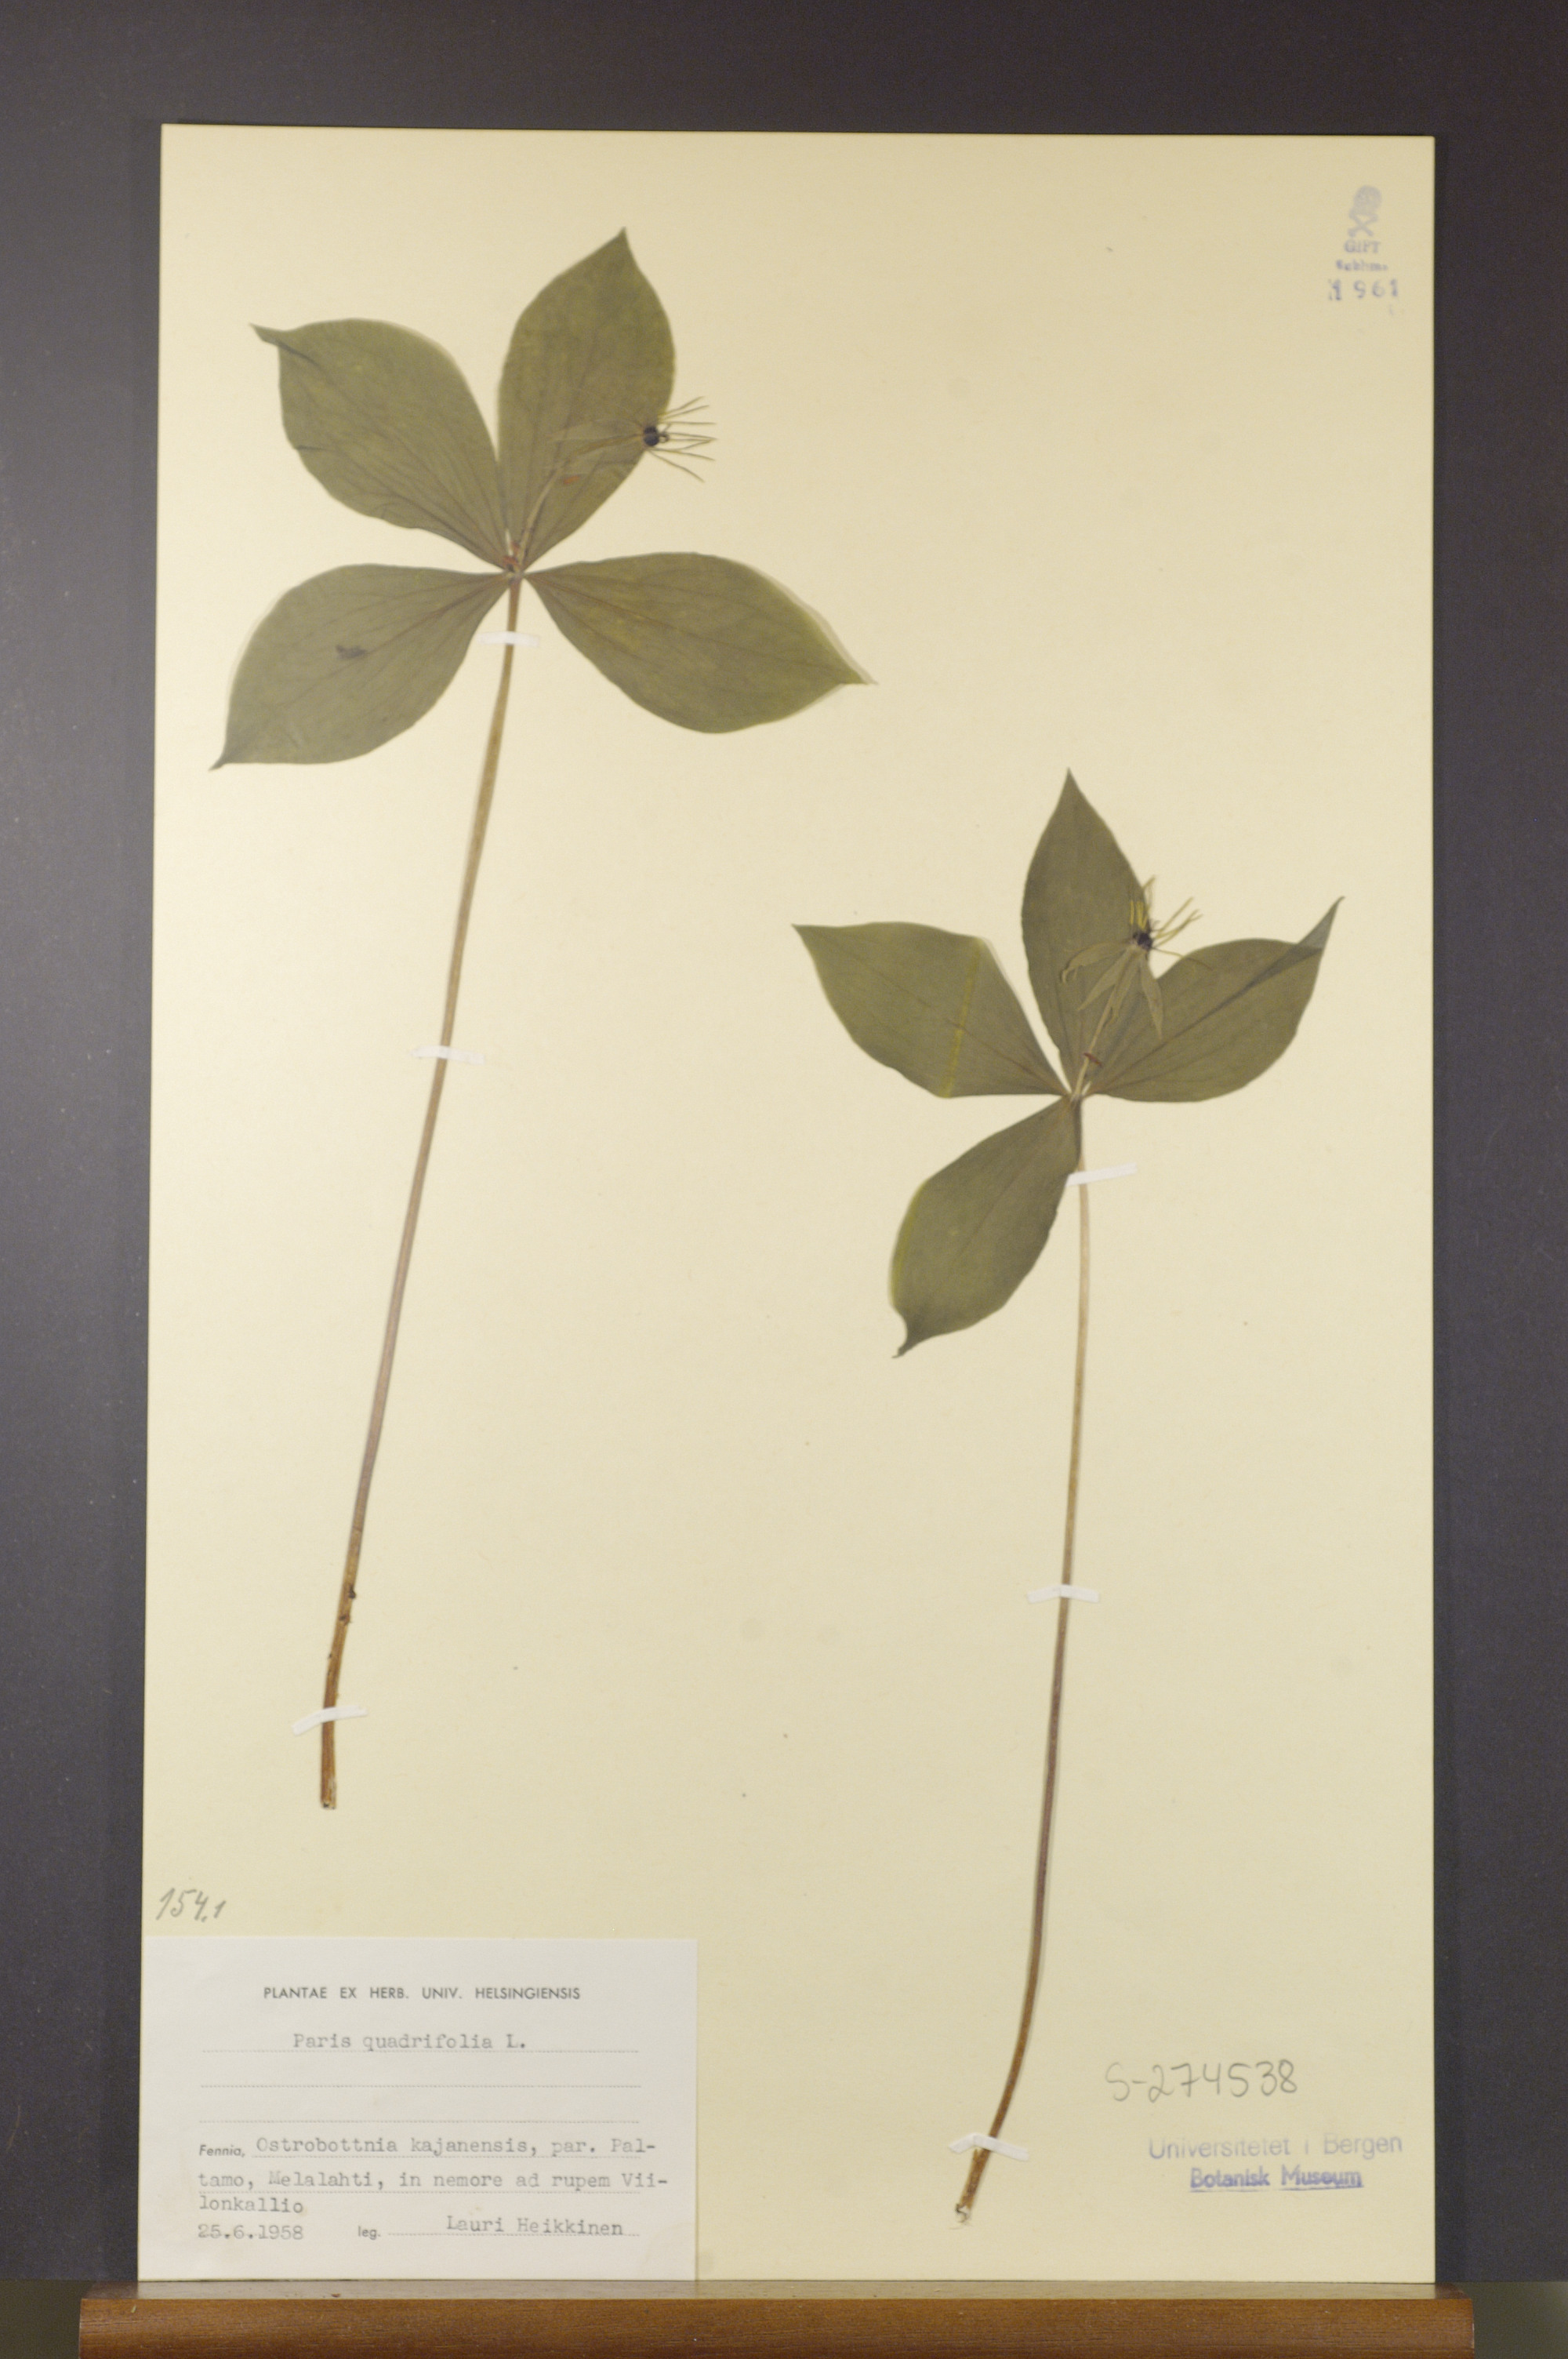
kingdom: Plantae
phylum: Tracheophyta
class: Liliopsida
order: Liliales
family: Melanthiaceae
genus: Paris
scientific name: Paris quadrifolia
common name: Herb-paris
